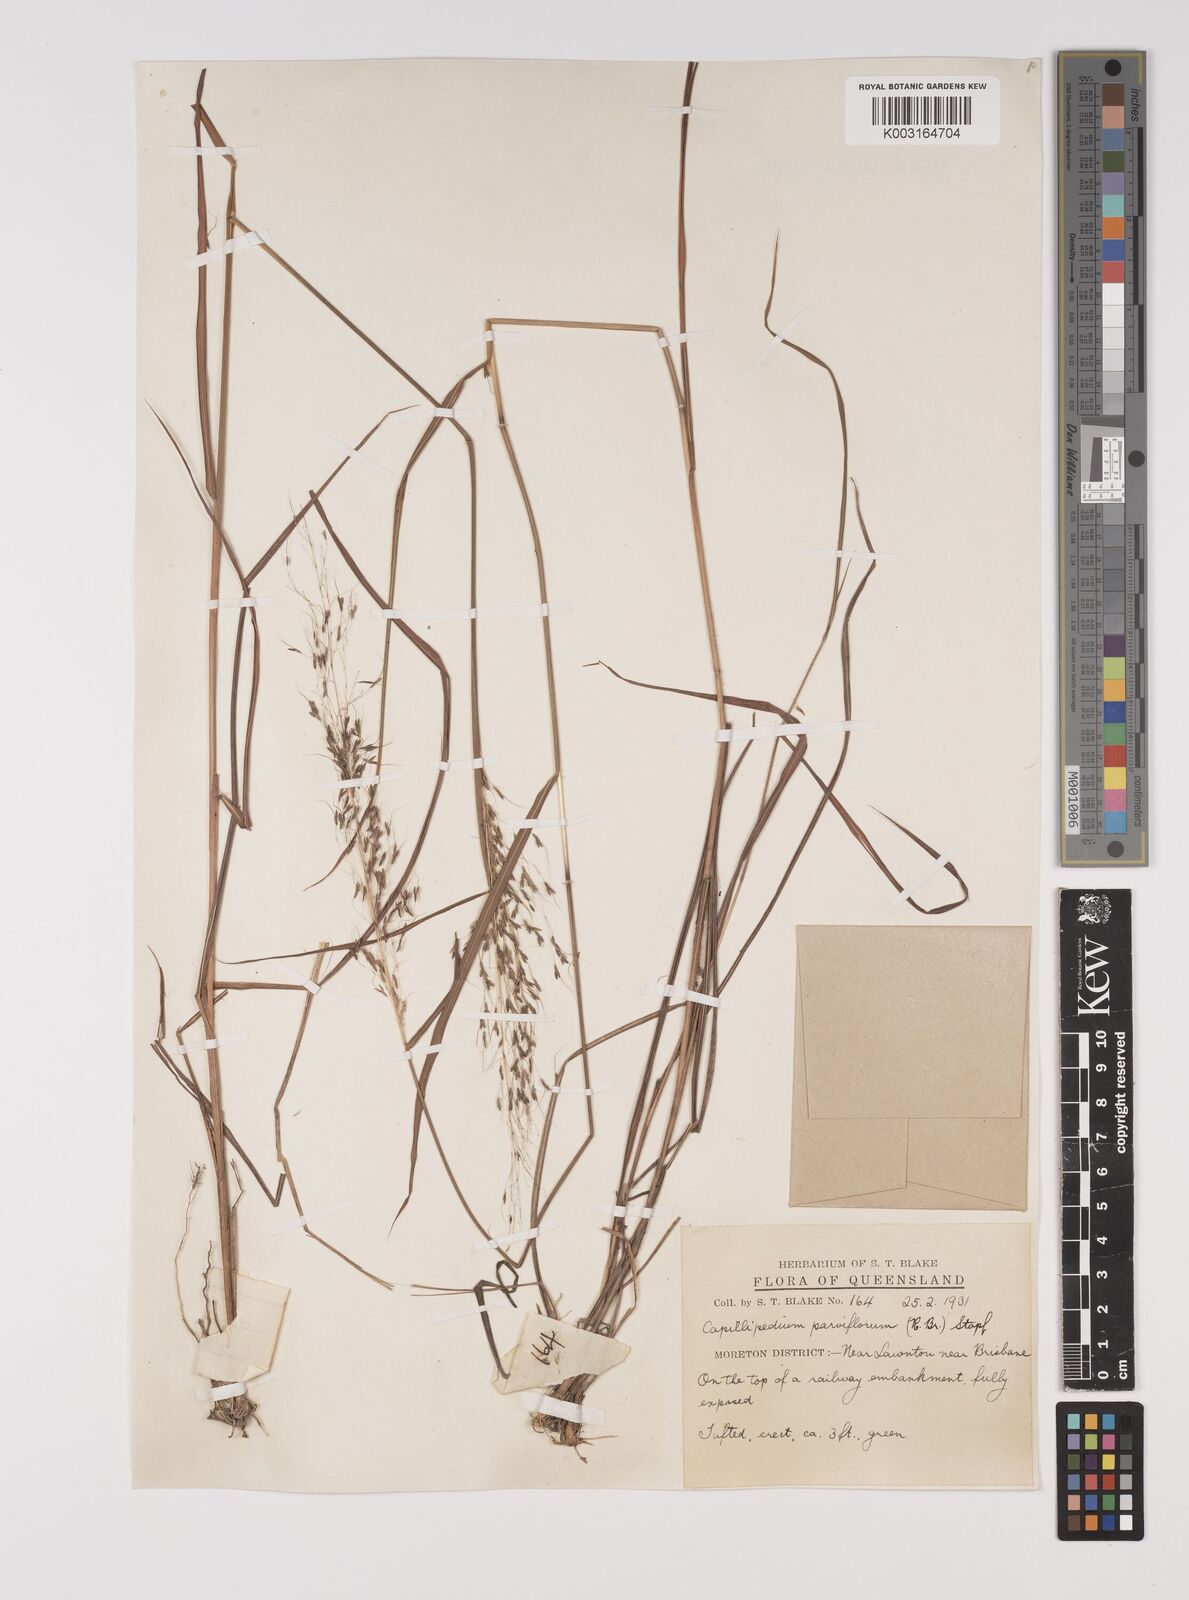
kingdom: Plantae
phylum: Tracheophyta
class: Liliopsida
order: Poales
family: Poaceae
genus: Capillipedium
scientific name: Capillipedium parviflorum
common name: Golden-beard
